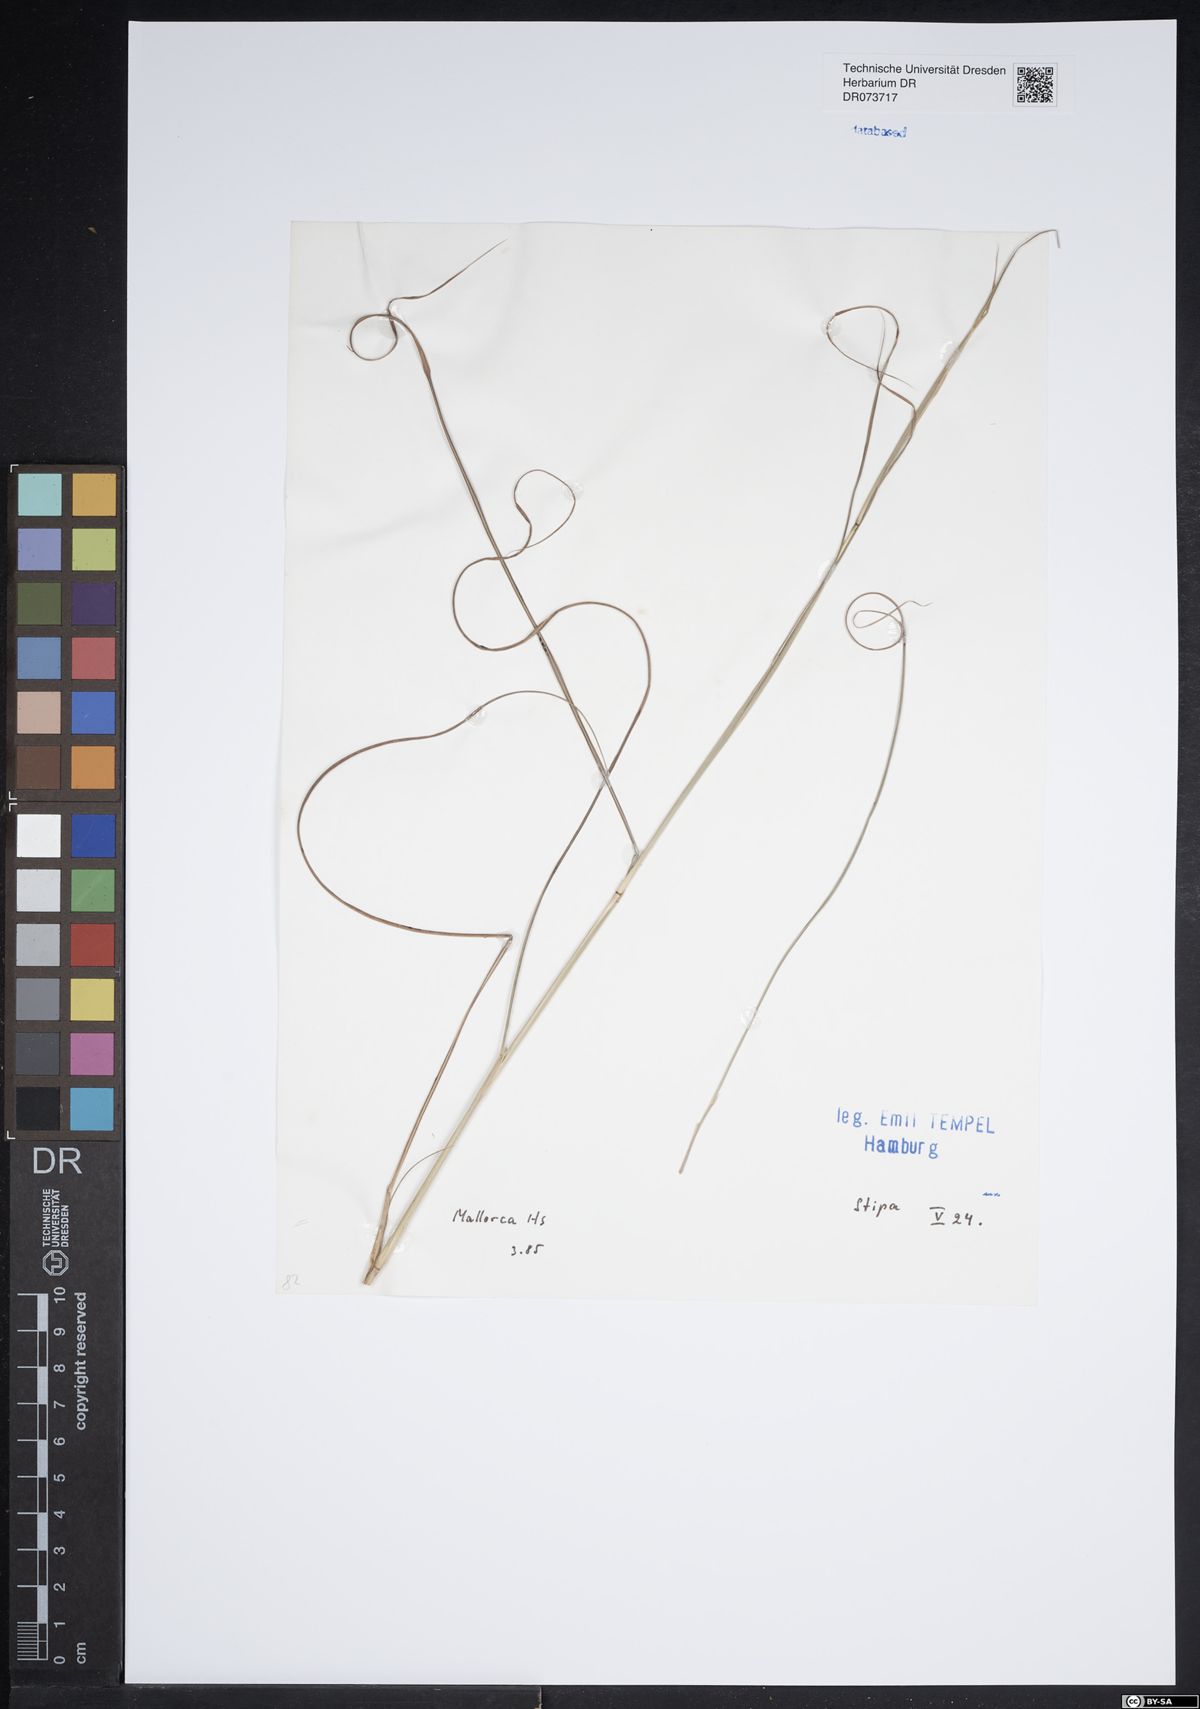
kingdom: Plantae
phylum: Tracheophyta
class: Liliopsida
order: Poales
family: Poaceae
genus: Stipa
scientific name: Stipa
